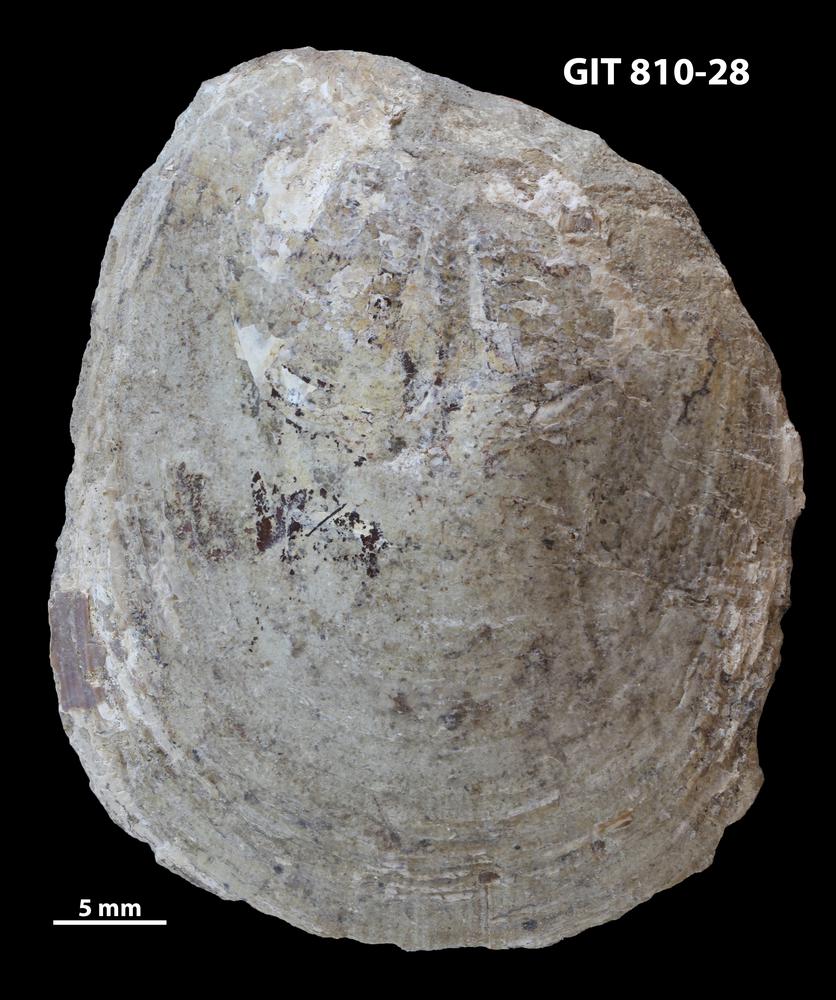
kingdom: Animalia
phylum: Brachiopoda
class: Lingulata
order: Lingulida
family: Pseudolingulidae
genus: Pseudolingula
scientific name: Pseudolingula Crania quadrata
